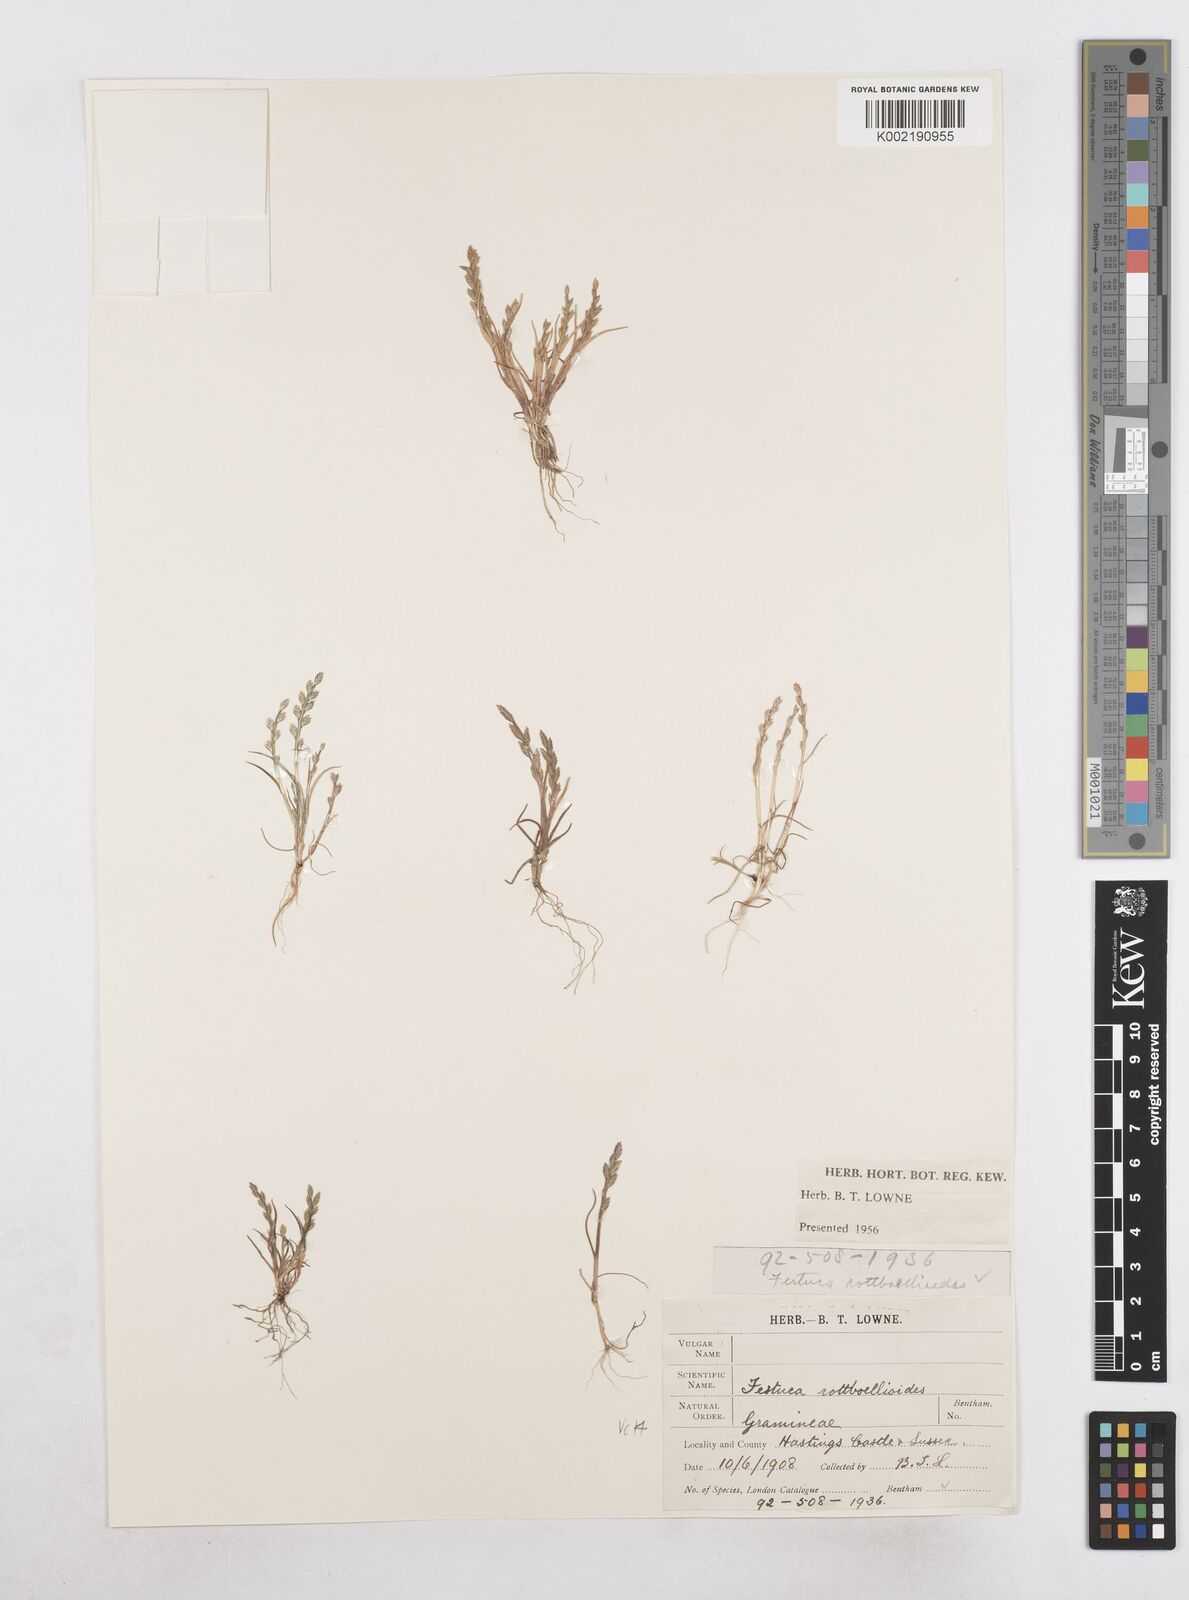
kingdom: Plantae
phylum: Tracheophyta
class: Liliopsida
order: Poales
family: Poaceae
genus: Catapodium
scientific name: Catapodium marinum
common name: Sea fern-grass
